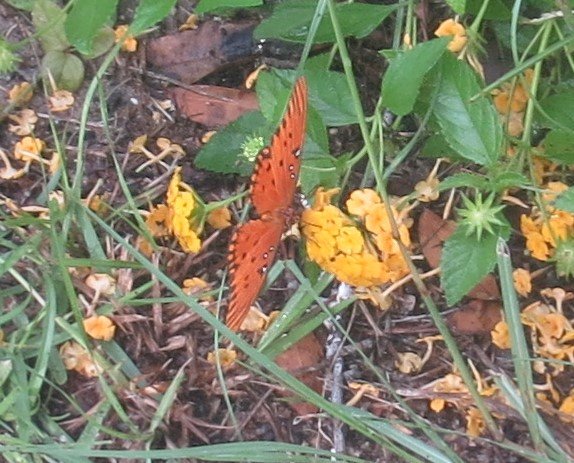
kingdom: Animalia
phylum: Arthropoda
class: Insecta
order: Lepidoptera
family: Nymphalidae
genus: Dione
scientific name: Dione vanillae
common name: Gulf Fritillary
